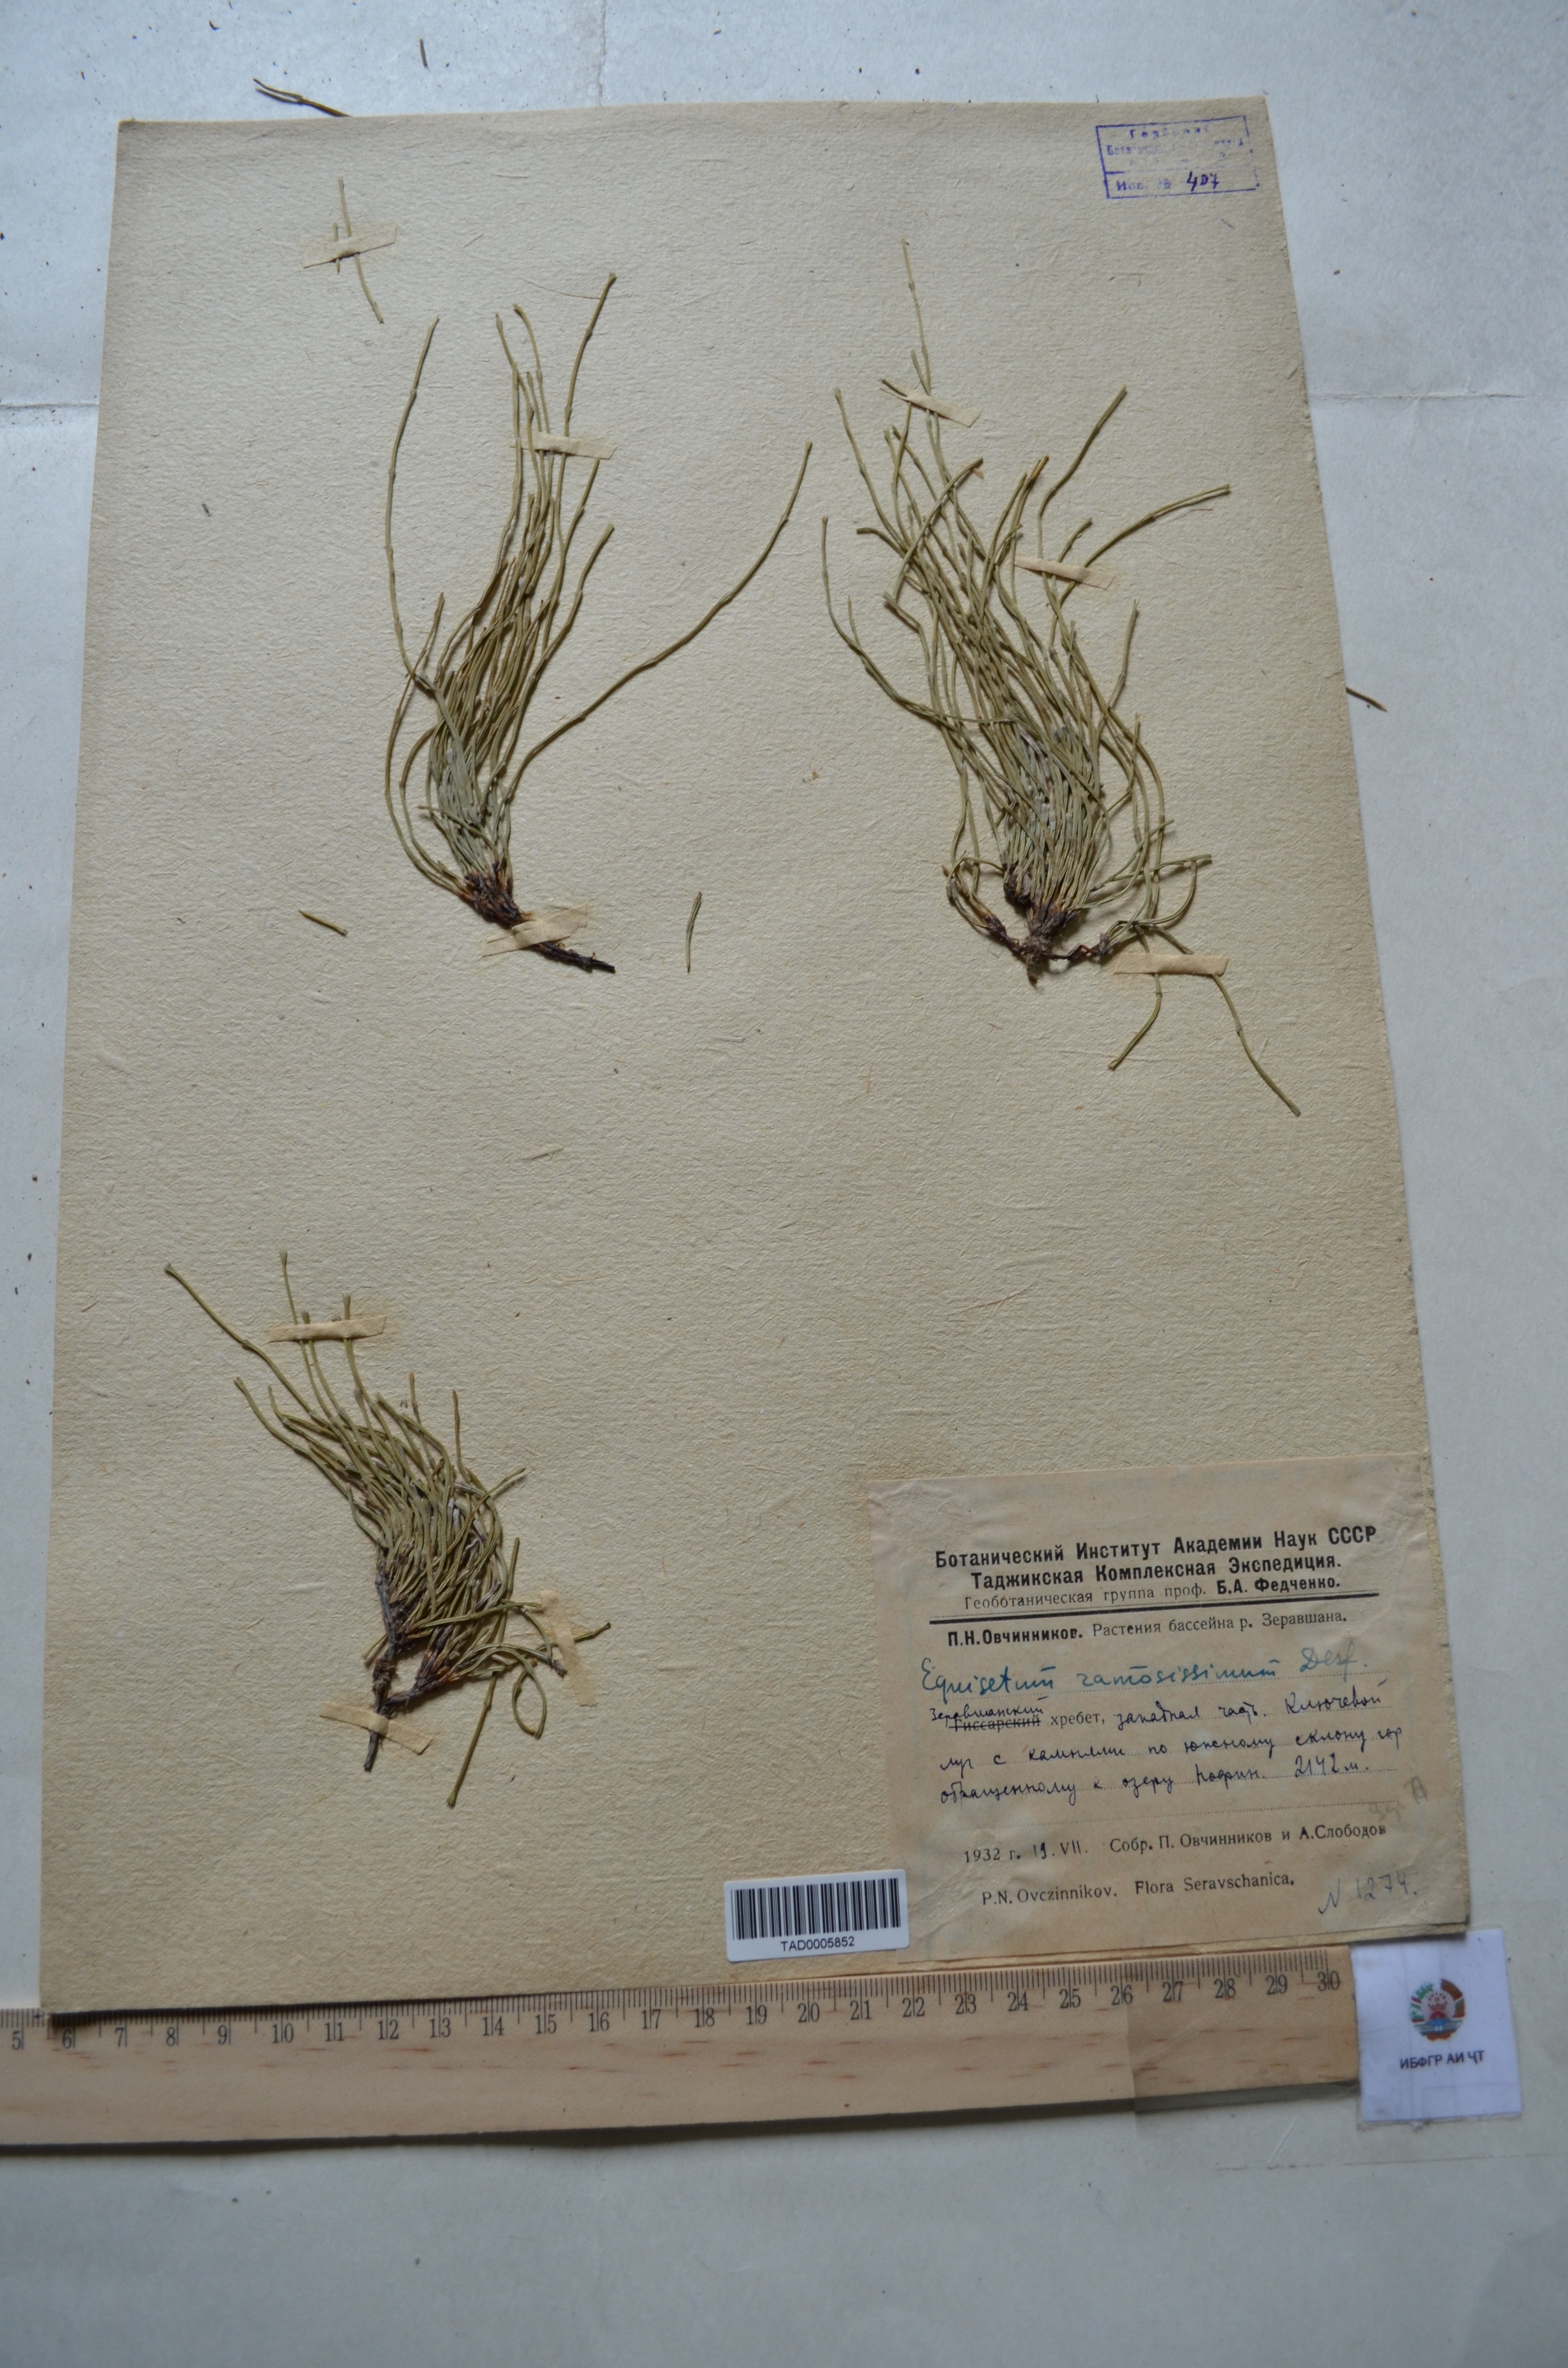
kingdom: Plantae
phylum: Tracheophyta
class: Polypodiopsida
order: Equisetales
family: Equisetaceae
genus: Equisetum
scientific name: Equisetum ramosissimum
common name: Branched horsetail
